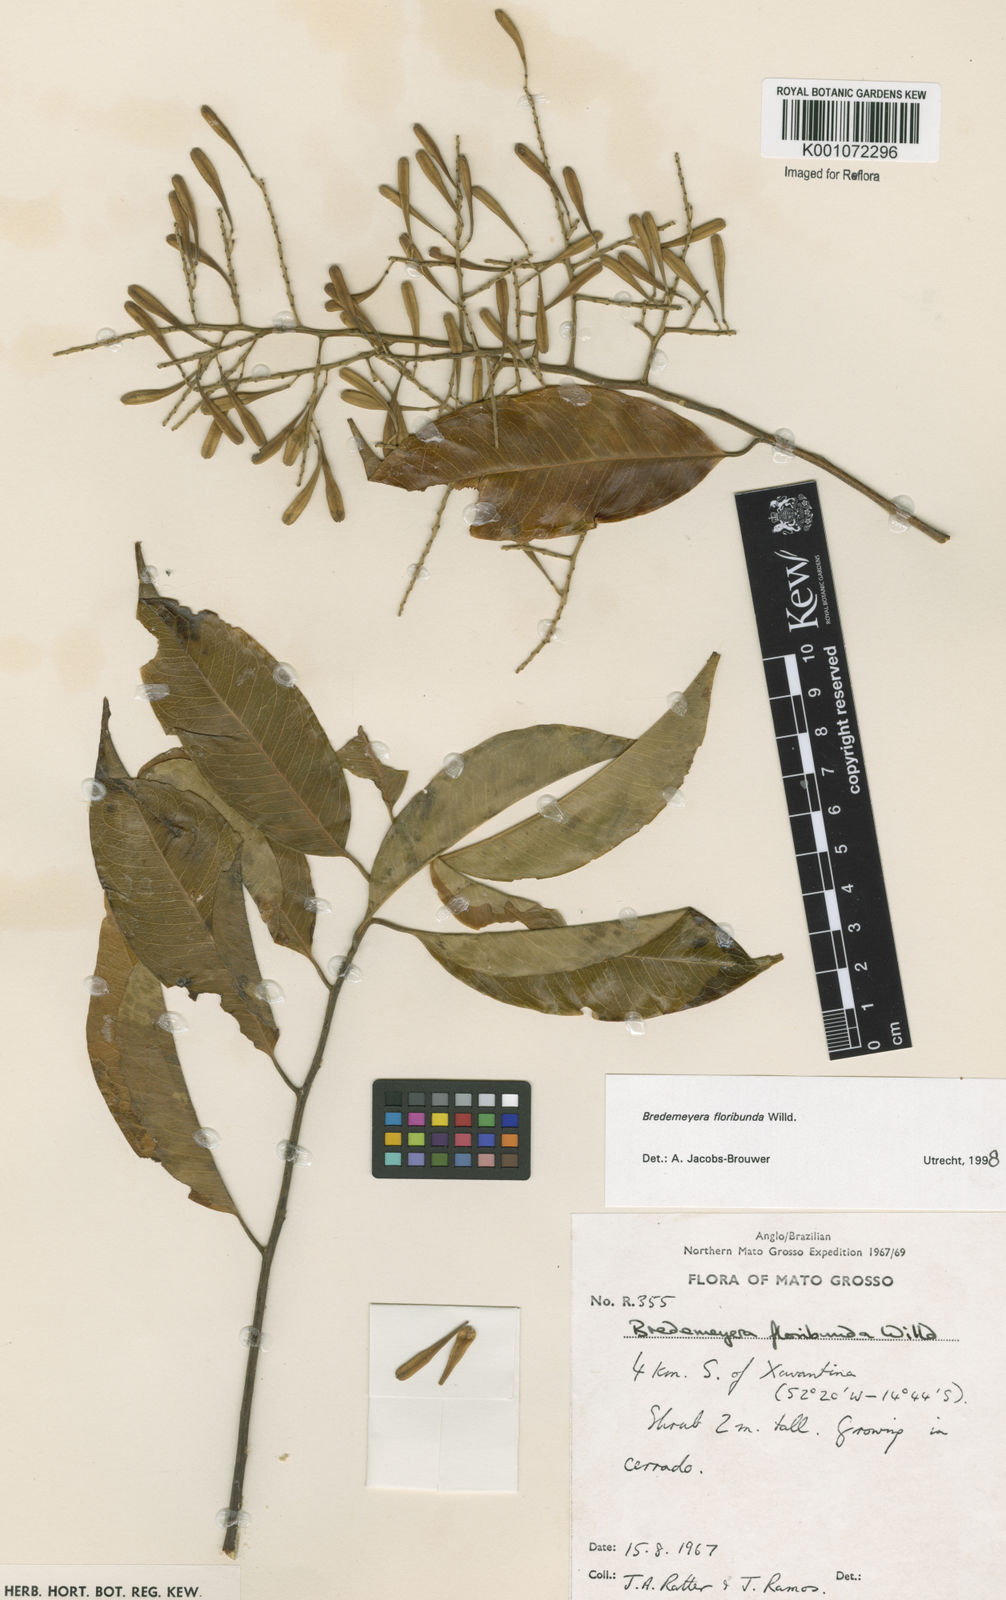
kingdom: Plantae
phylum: Tracheophyta
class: Magnoliopsida
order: Fabales
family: Polygalaceae
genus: Bredemeyera
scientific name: Bredemeyera floribunda
